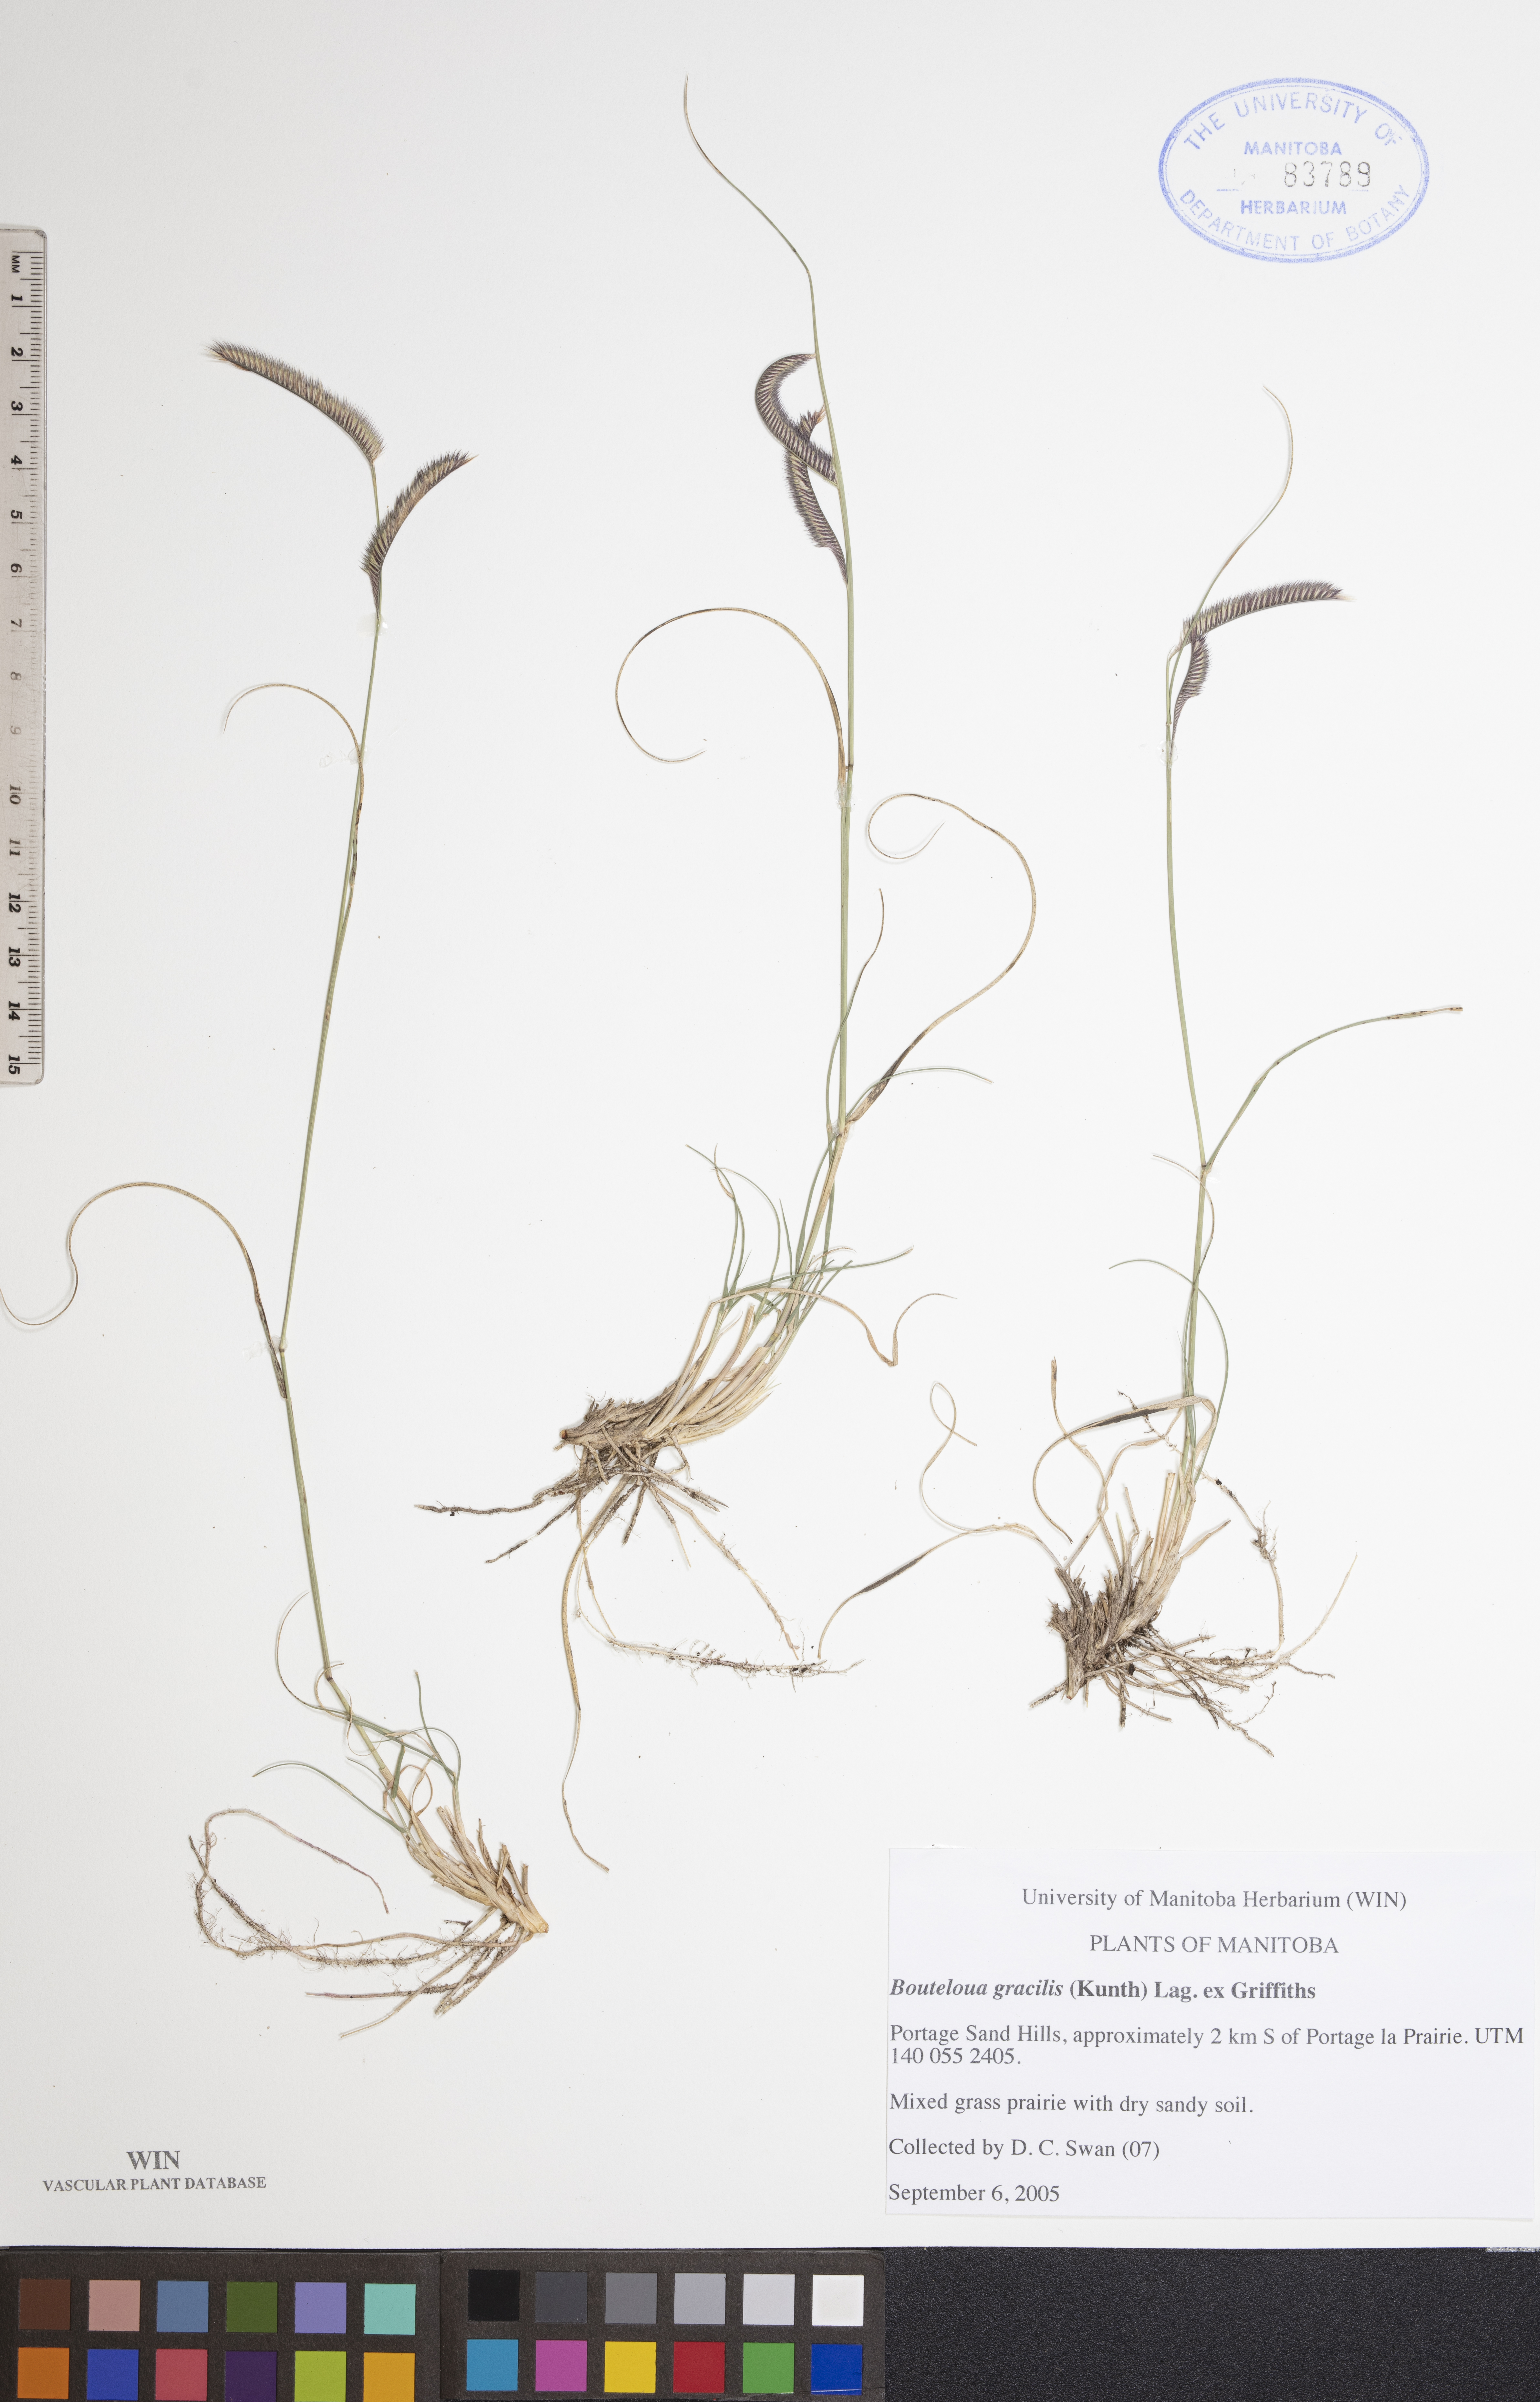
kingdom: Plantae
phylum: Tracheophyta
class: Liliopsida
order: Poales
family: Poaceae
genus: Bouteloua
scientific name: Bouteloua gracilis
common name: Blue grama
